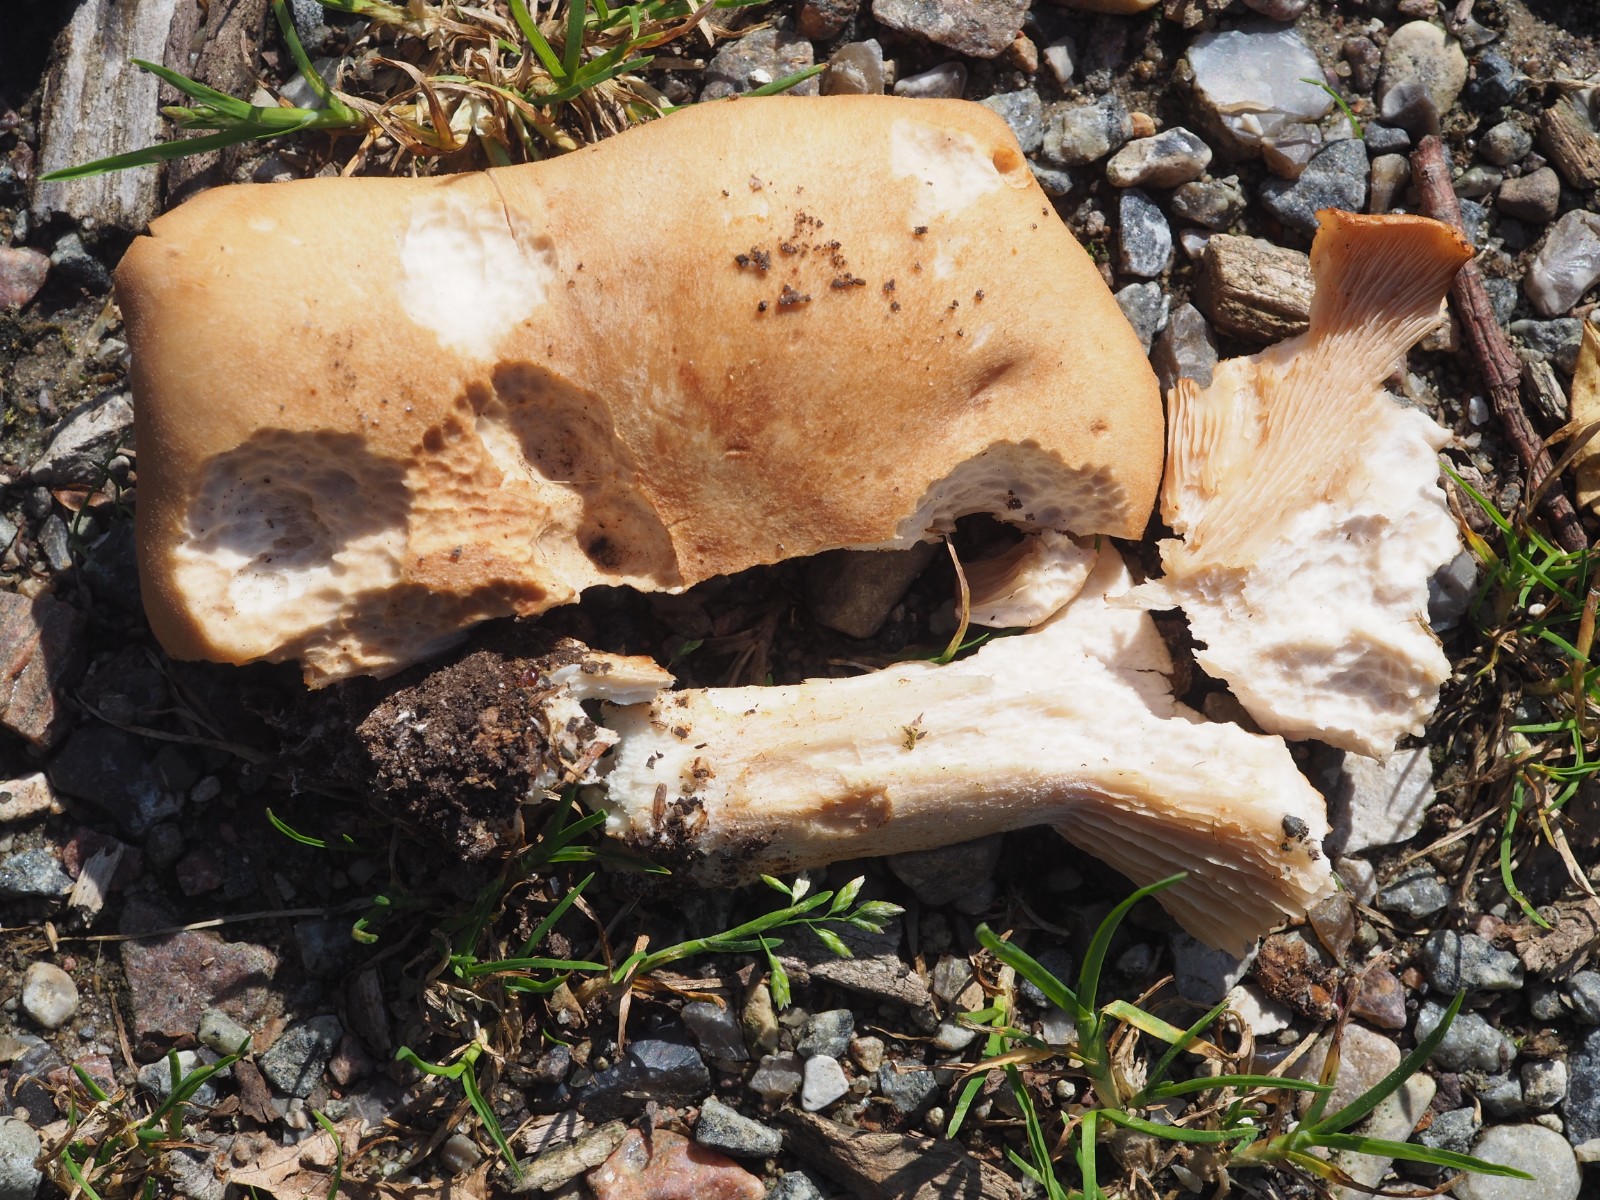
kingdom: Fungi
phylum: Basidiomycota
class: Agaricomycetes
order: Agaricales
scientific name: Agaricales
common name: champignonordenen
